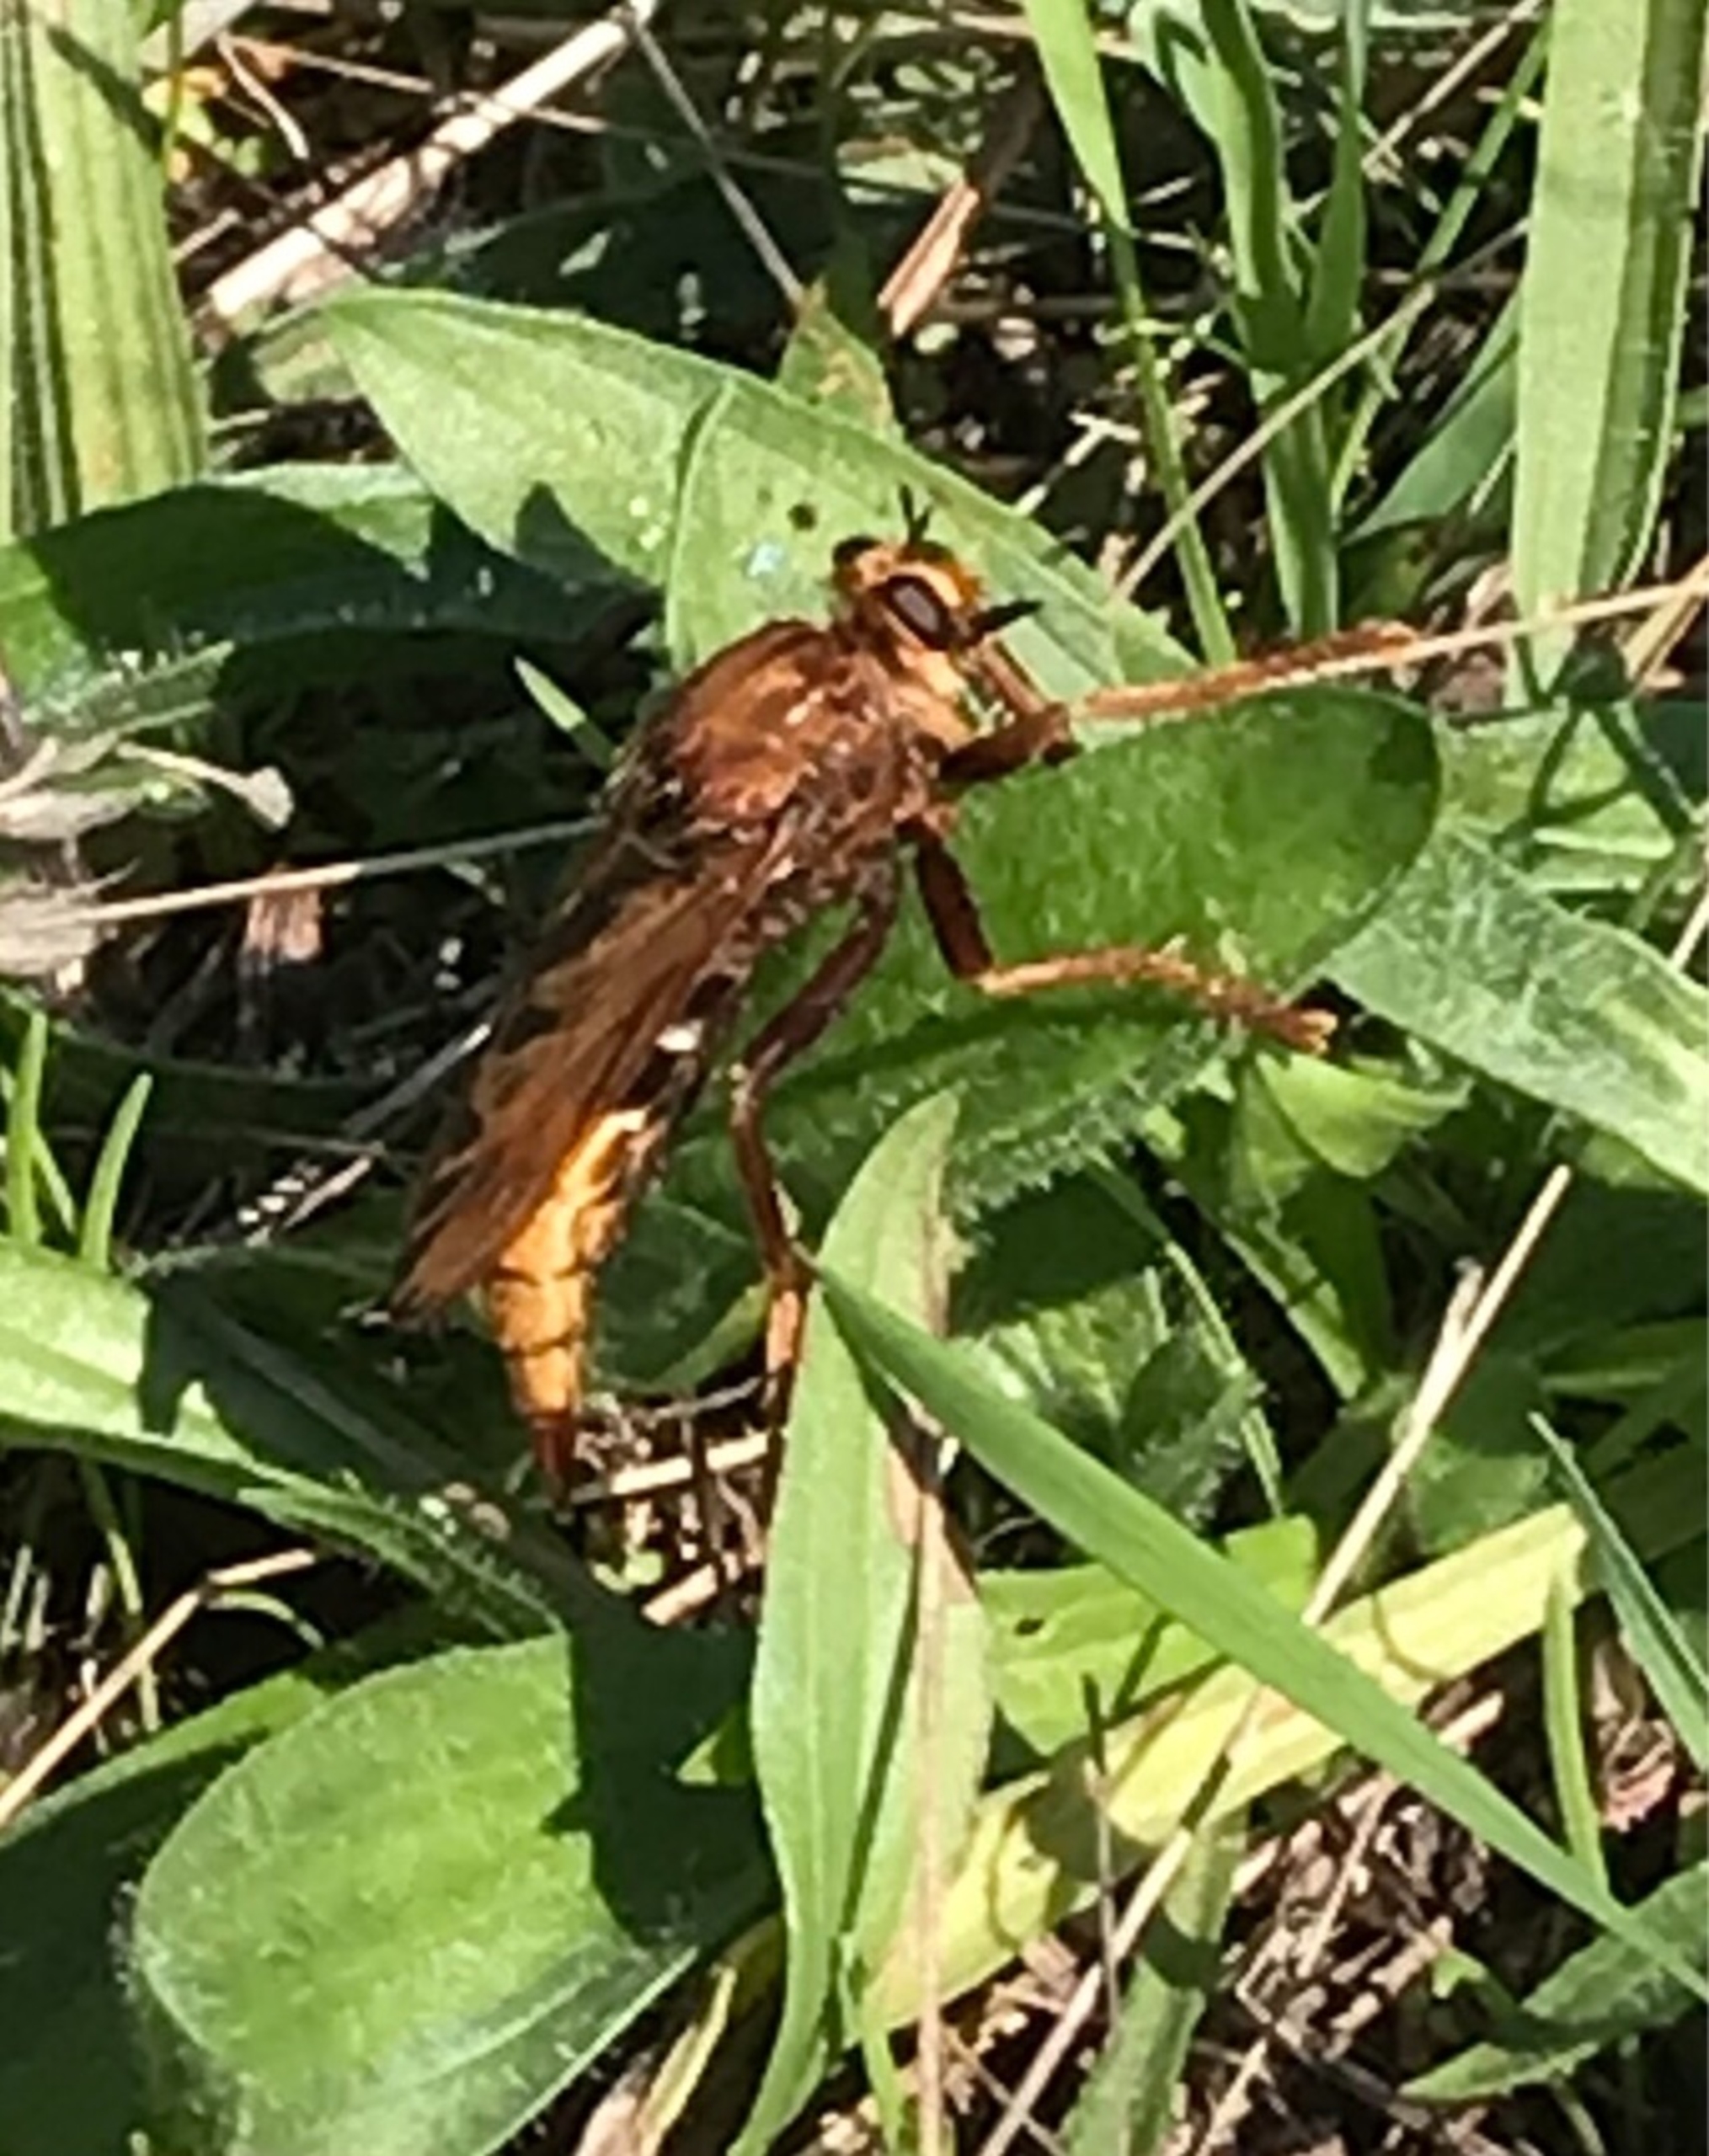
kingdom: Animalia
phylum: Arthropoda
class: Insecta
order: Diptera
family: Asilidae
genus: Asilus
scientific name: Asilus crabroniformis
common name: Stor gødningsrovflue
